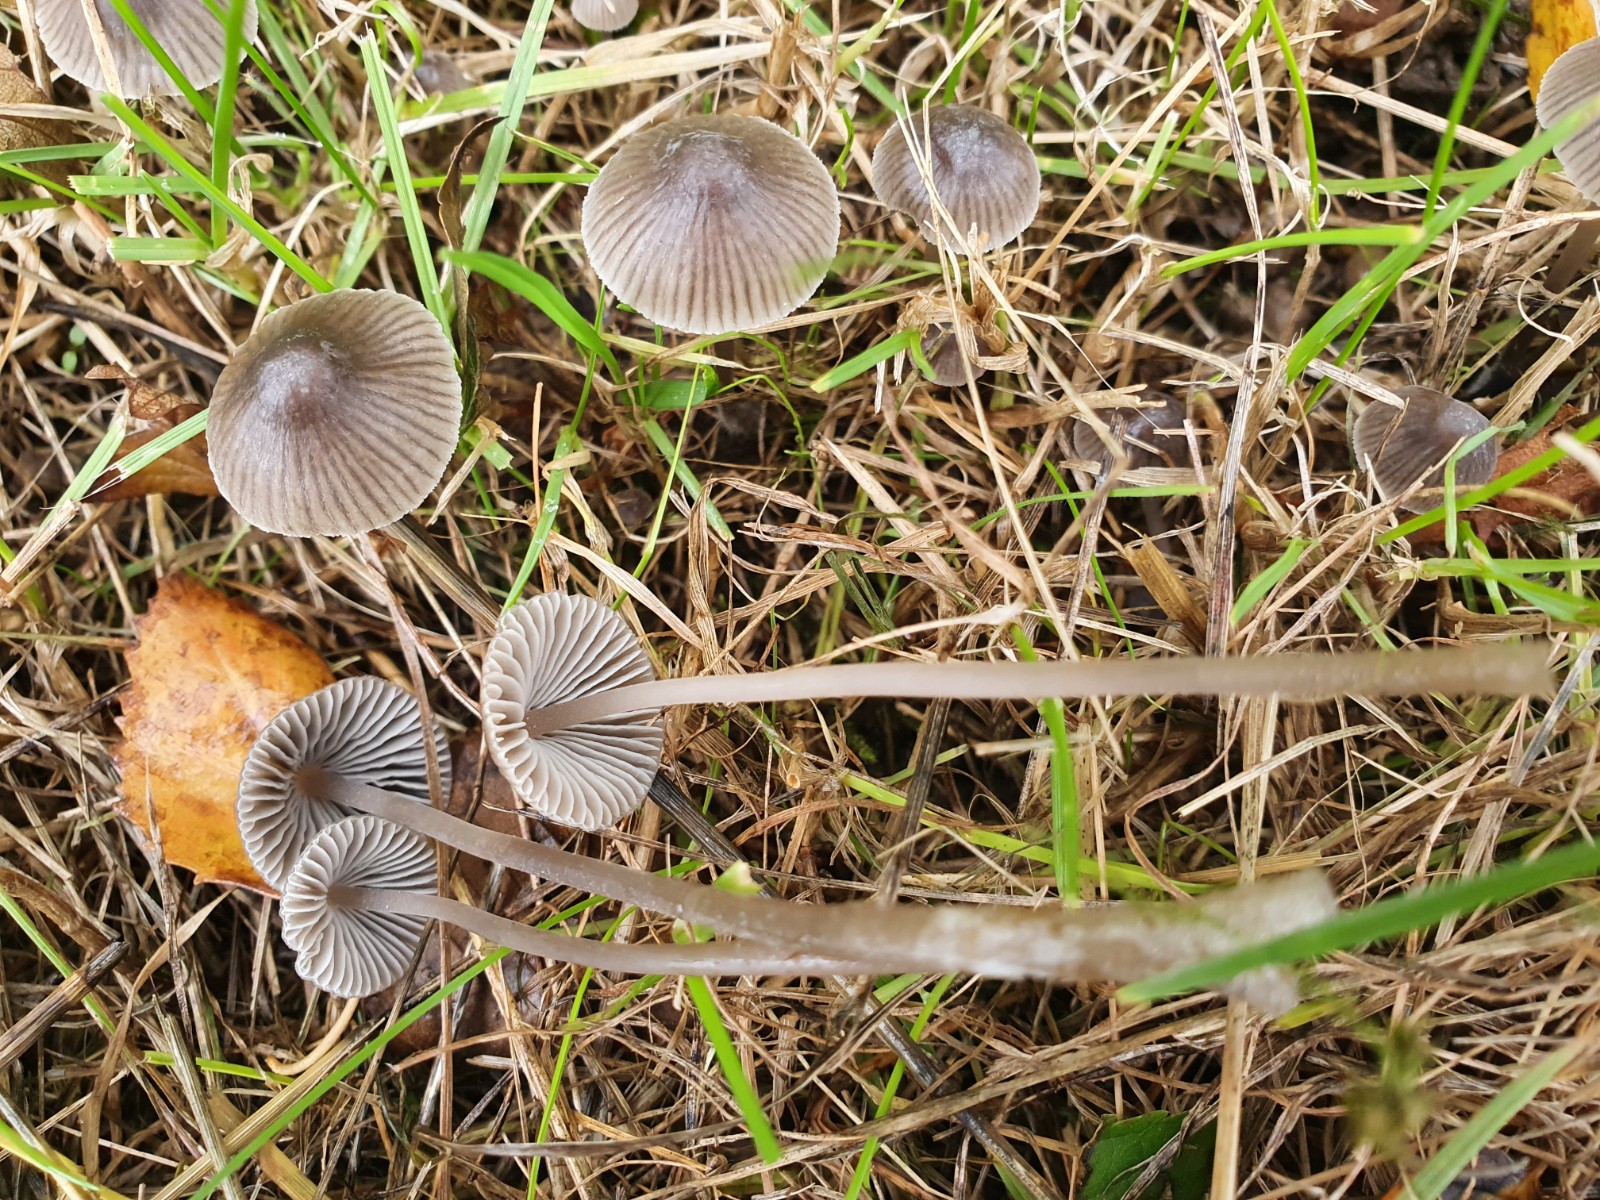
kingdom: Fungi
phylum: Basidiomycota
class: Agaricomycetes
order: Agaricales
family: Mycenaceae
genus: Mycena
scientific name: Mycena aetites
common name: plæne-huesvamp
